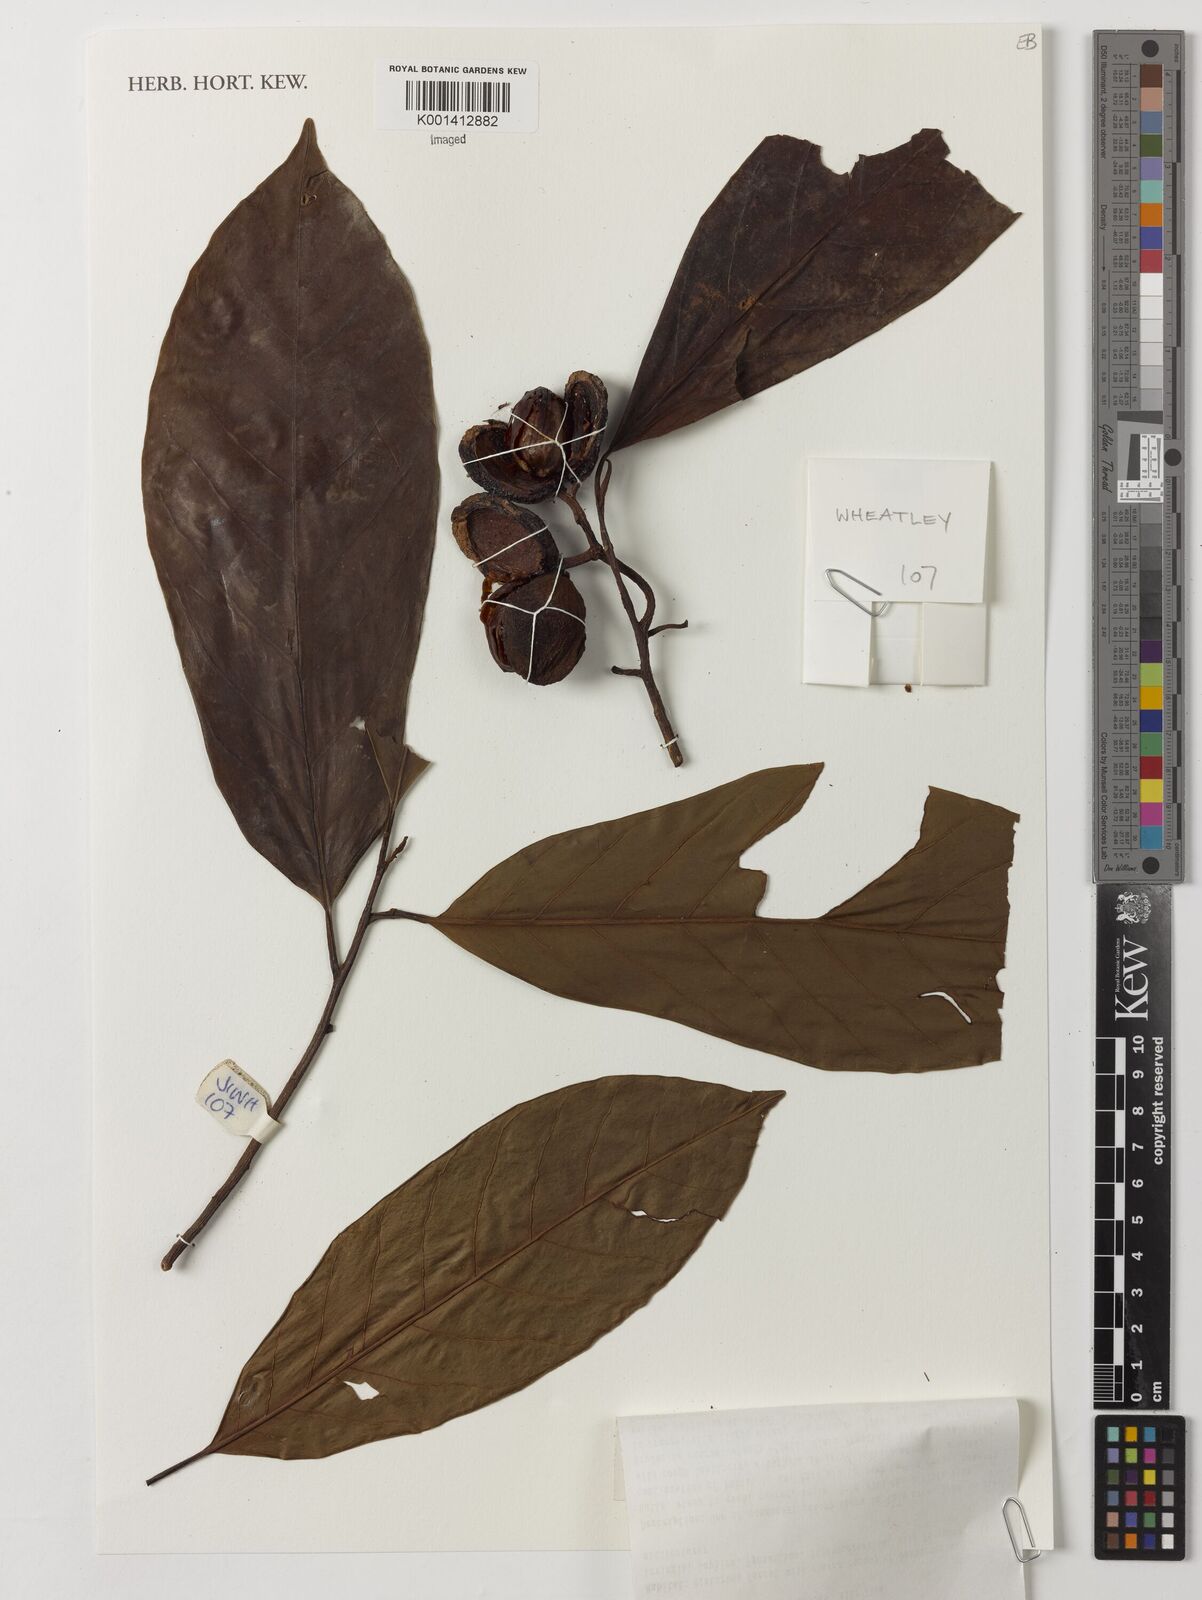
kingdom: Plantae
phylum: Tracheophyta
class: Magnoliopsida
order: Magnoliales
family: Myristicaceae
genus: Coelocaryon
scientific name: Coelocaryon preussii
